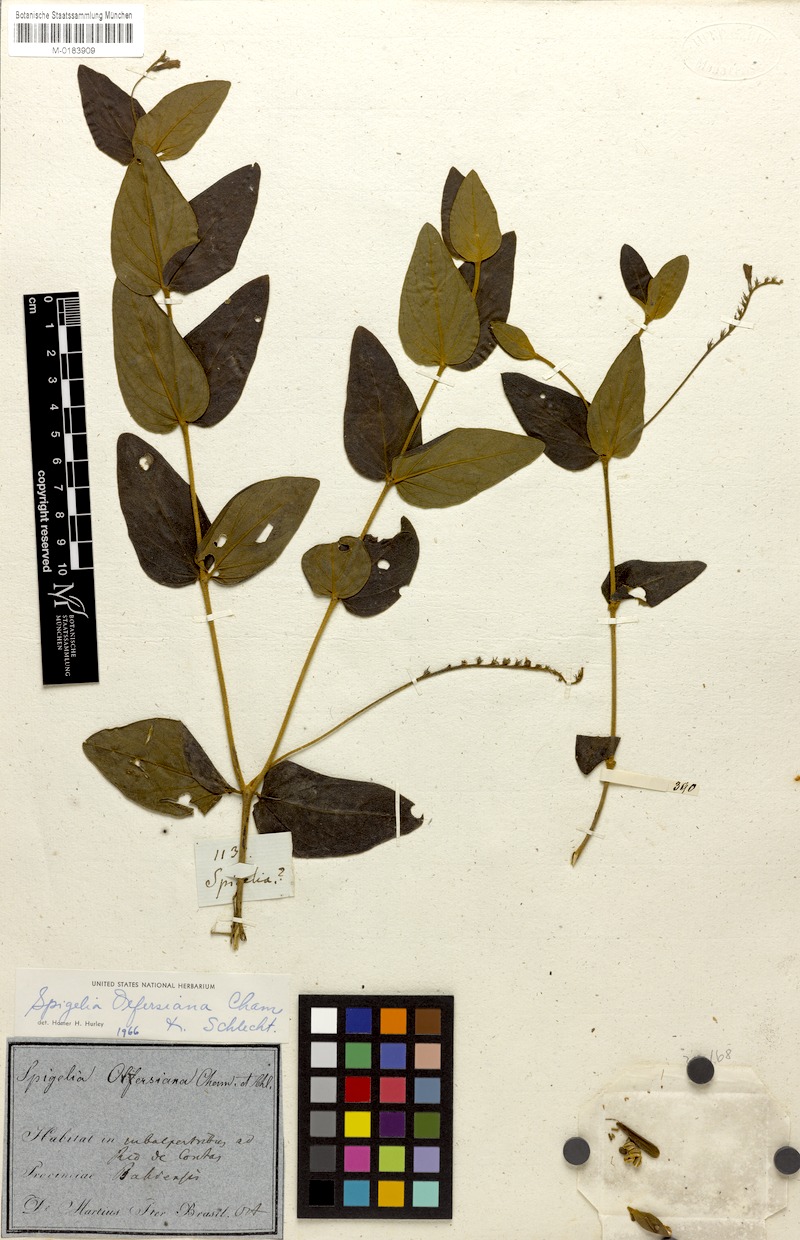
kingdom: Plantae
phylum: Tracheophyta
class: Magnoliopsida
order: Gentianales
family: Loganiaceae
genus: Spigelia
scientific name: Spigelia olfersiana
